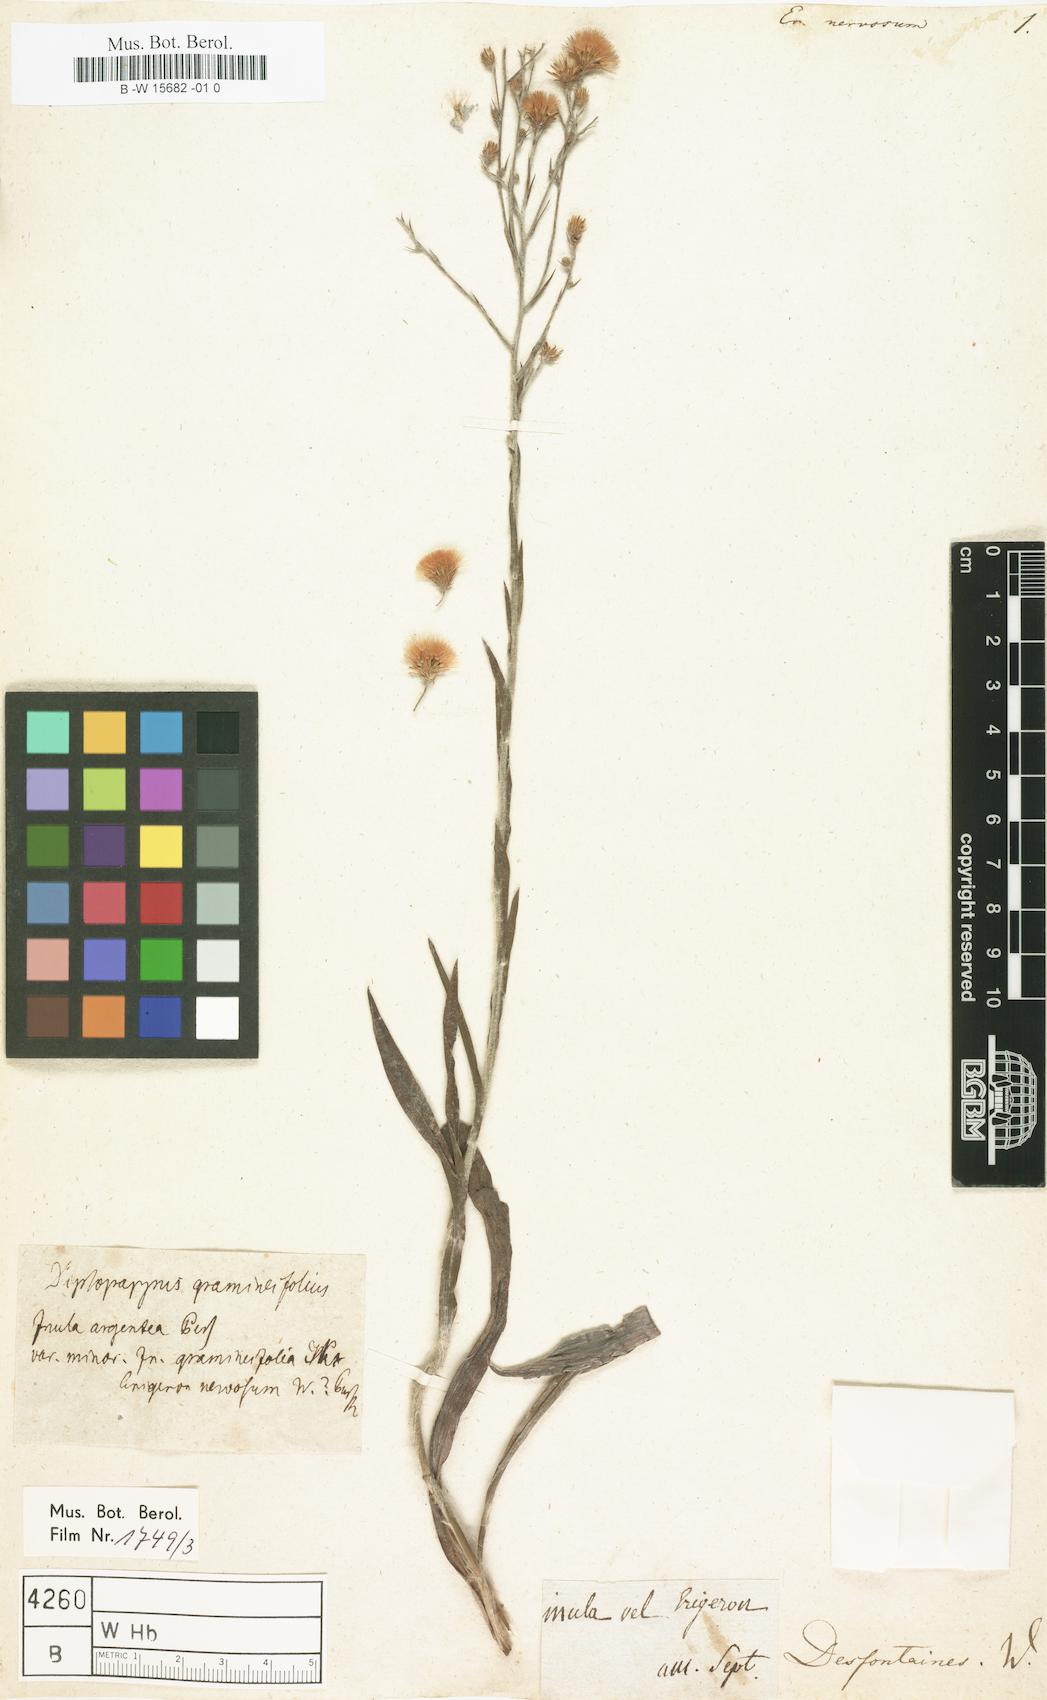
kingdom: Plantae
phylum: Tracheophyta
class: Magnoliopsida
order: Asterales
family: Asteraceae
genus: Pityopsis
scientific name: Pityopsis graminifolia
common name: Grass-leaf golden-aster
